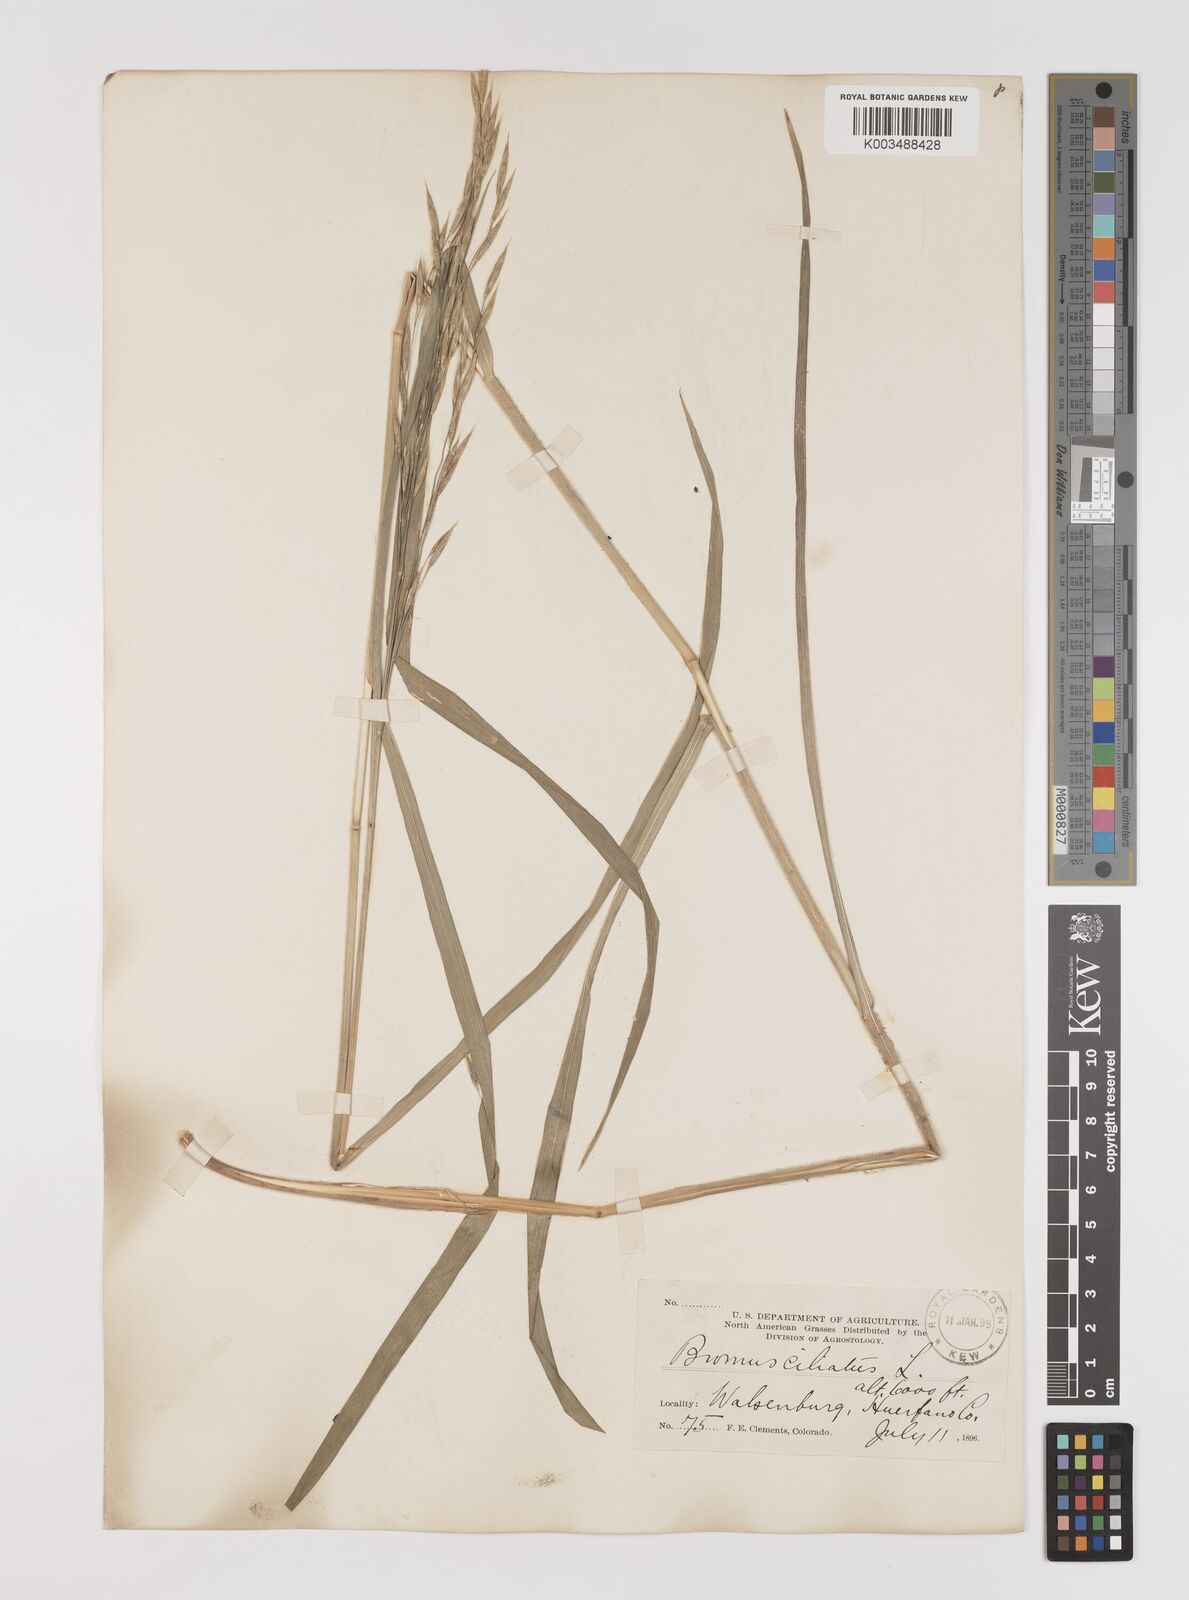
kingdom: Plantae
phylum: Tracheophyta
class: Liliopsida
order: Poales
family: Poaceae
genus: Bromus
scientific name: Bromus ciliatus
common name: Fringe brome
